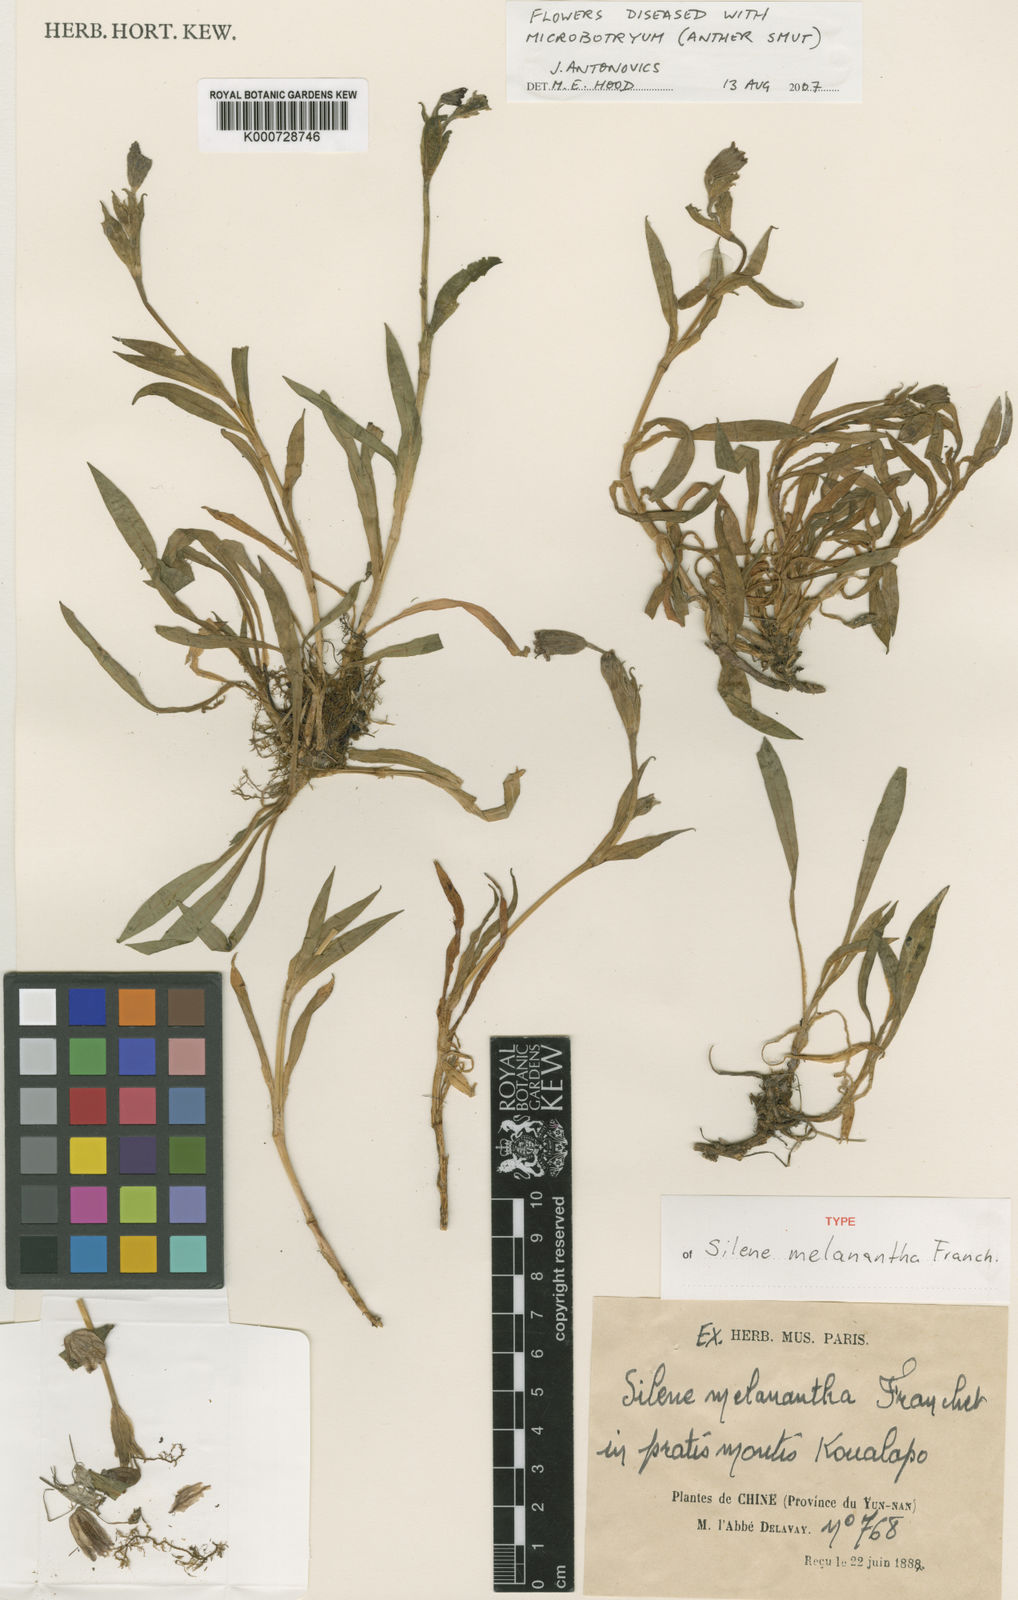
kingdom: Plantae
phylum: Tracheophyta
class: Magnoliopsida
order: Caryophyllales
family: Caryophyllaceae
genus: Silene
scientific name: Silene melanantha
